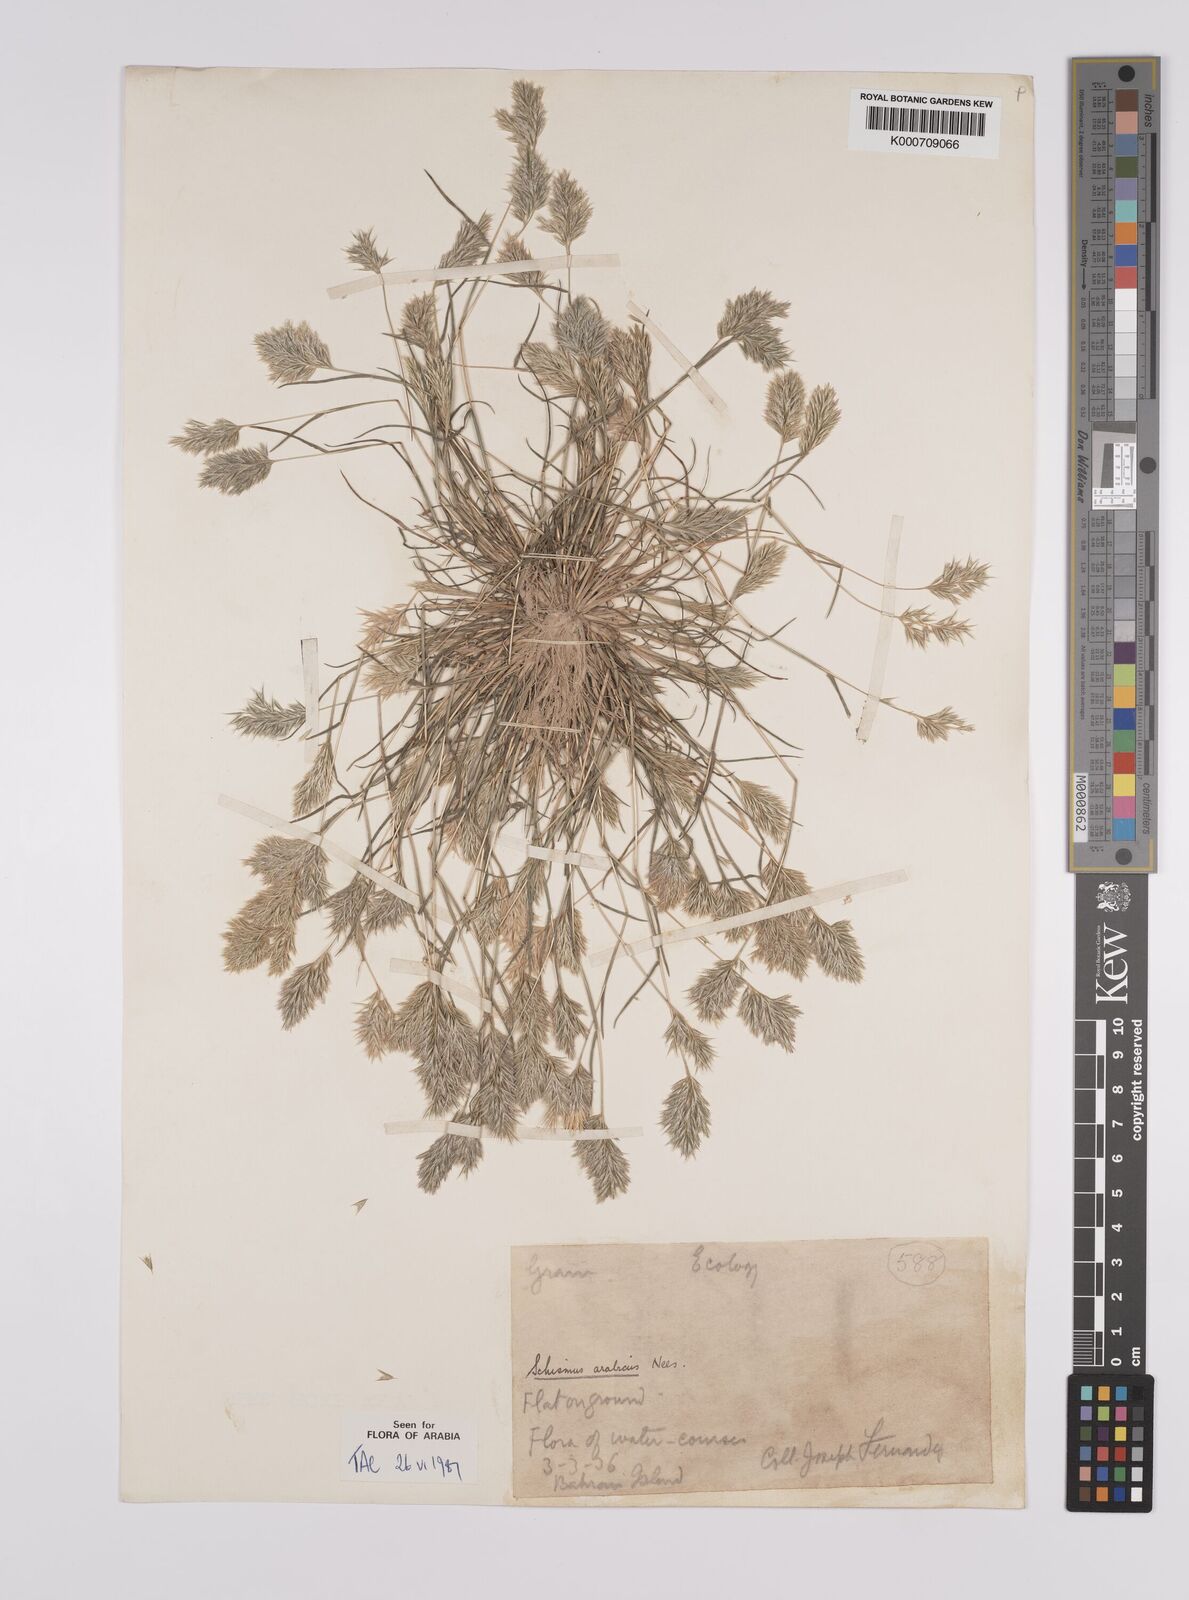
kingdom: Plantae
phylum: Tracheophyta
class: Liliopsida
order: Poales
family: Poaceae
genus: Schismus
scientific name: Schismus arabicus
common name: Arabian schismus
